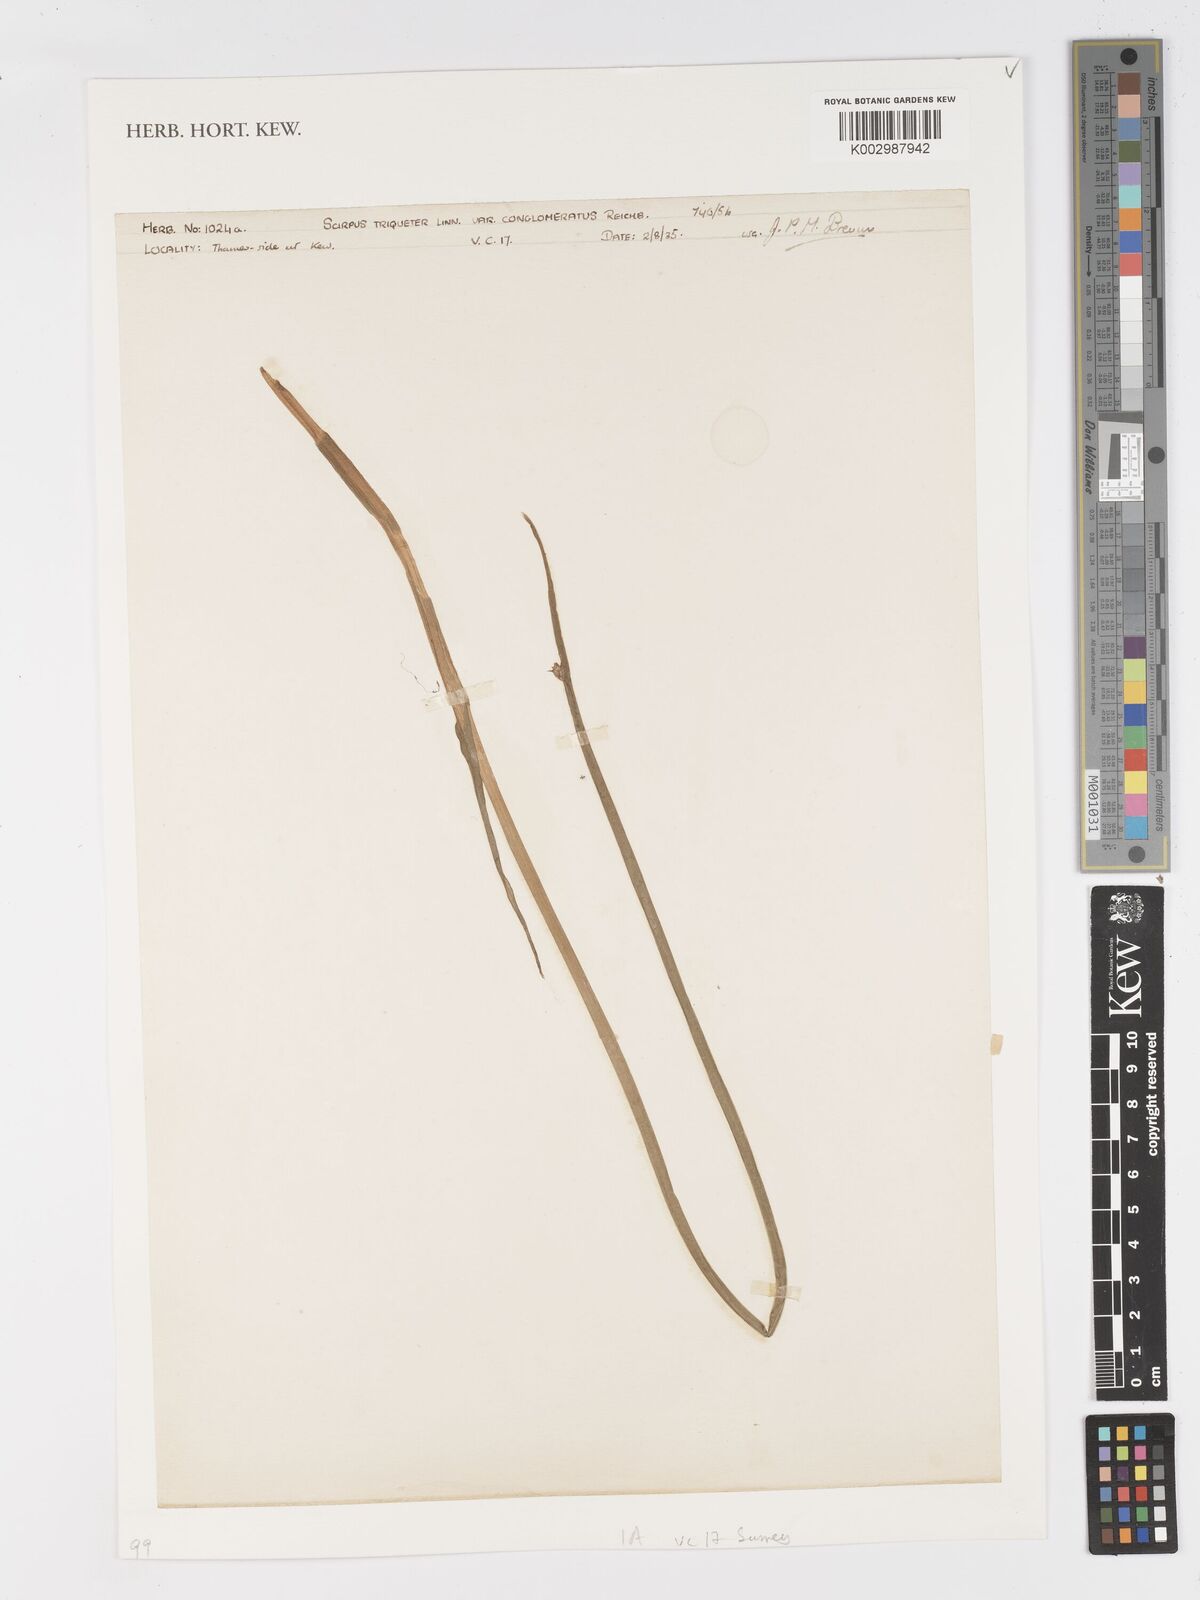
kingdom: Plantae
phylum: Tracheophyta
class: Liliopsida
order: Poales
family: Cyperaceae
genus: Schoenoplectus
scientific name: Schoenoplectus triqueter
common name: Triangular club-rush
